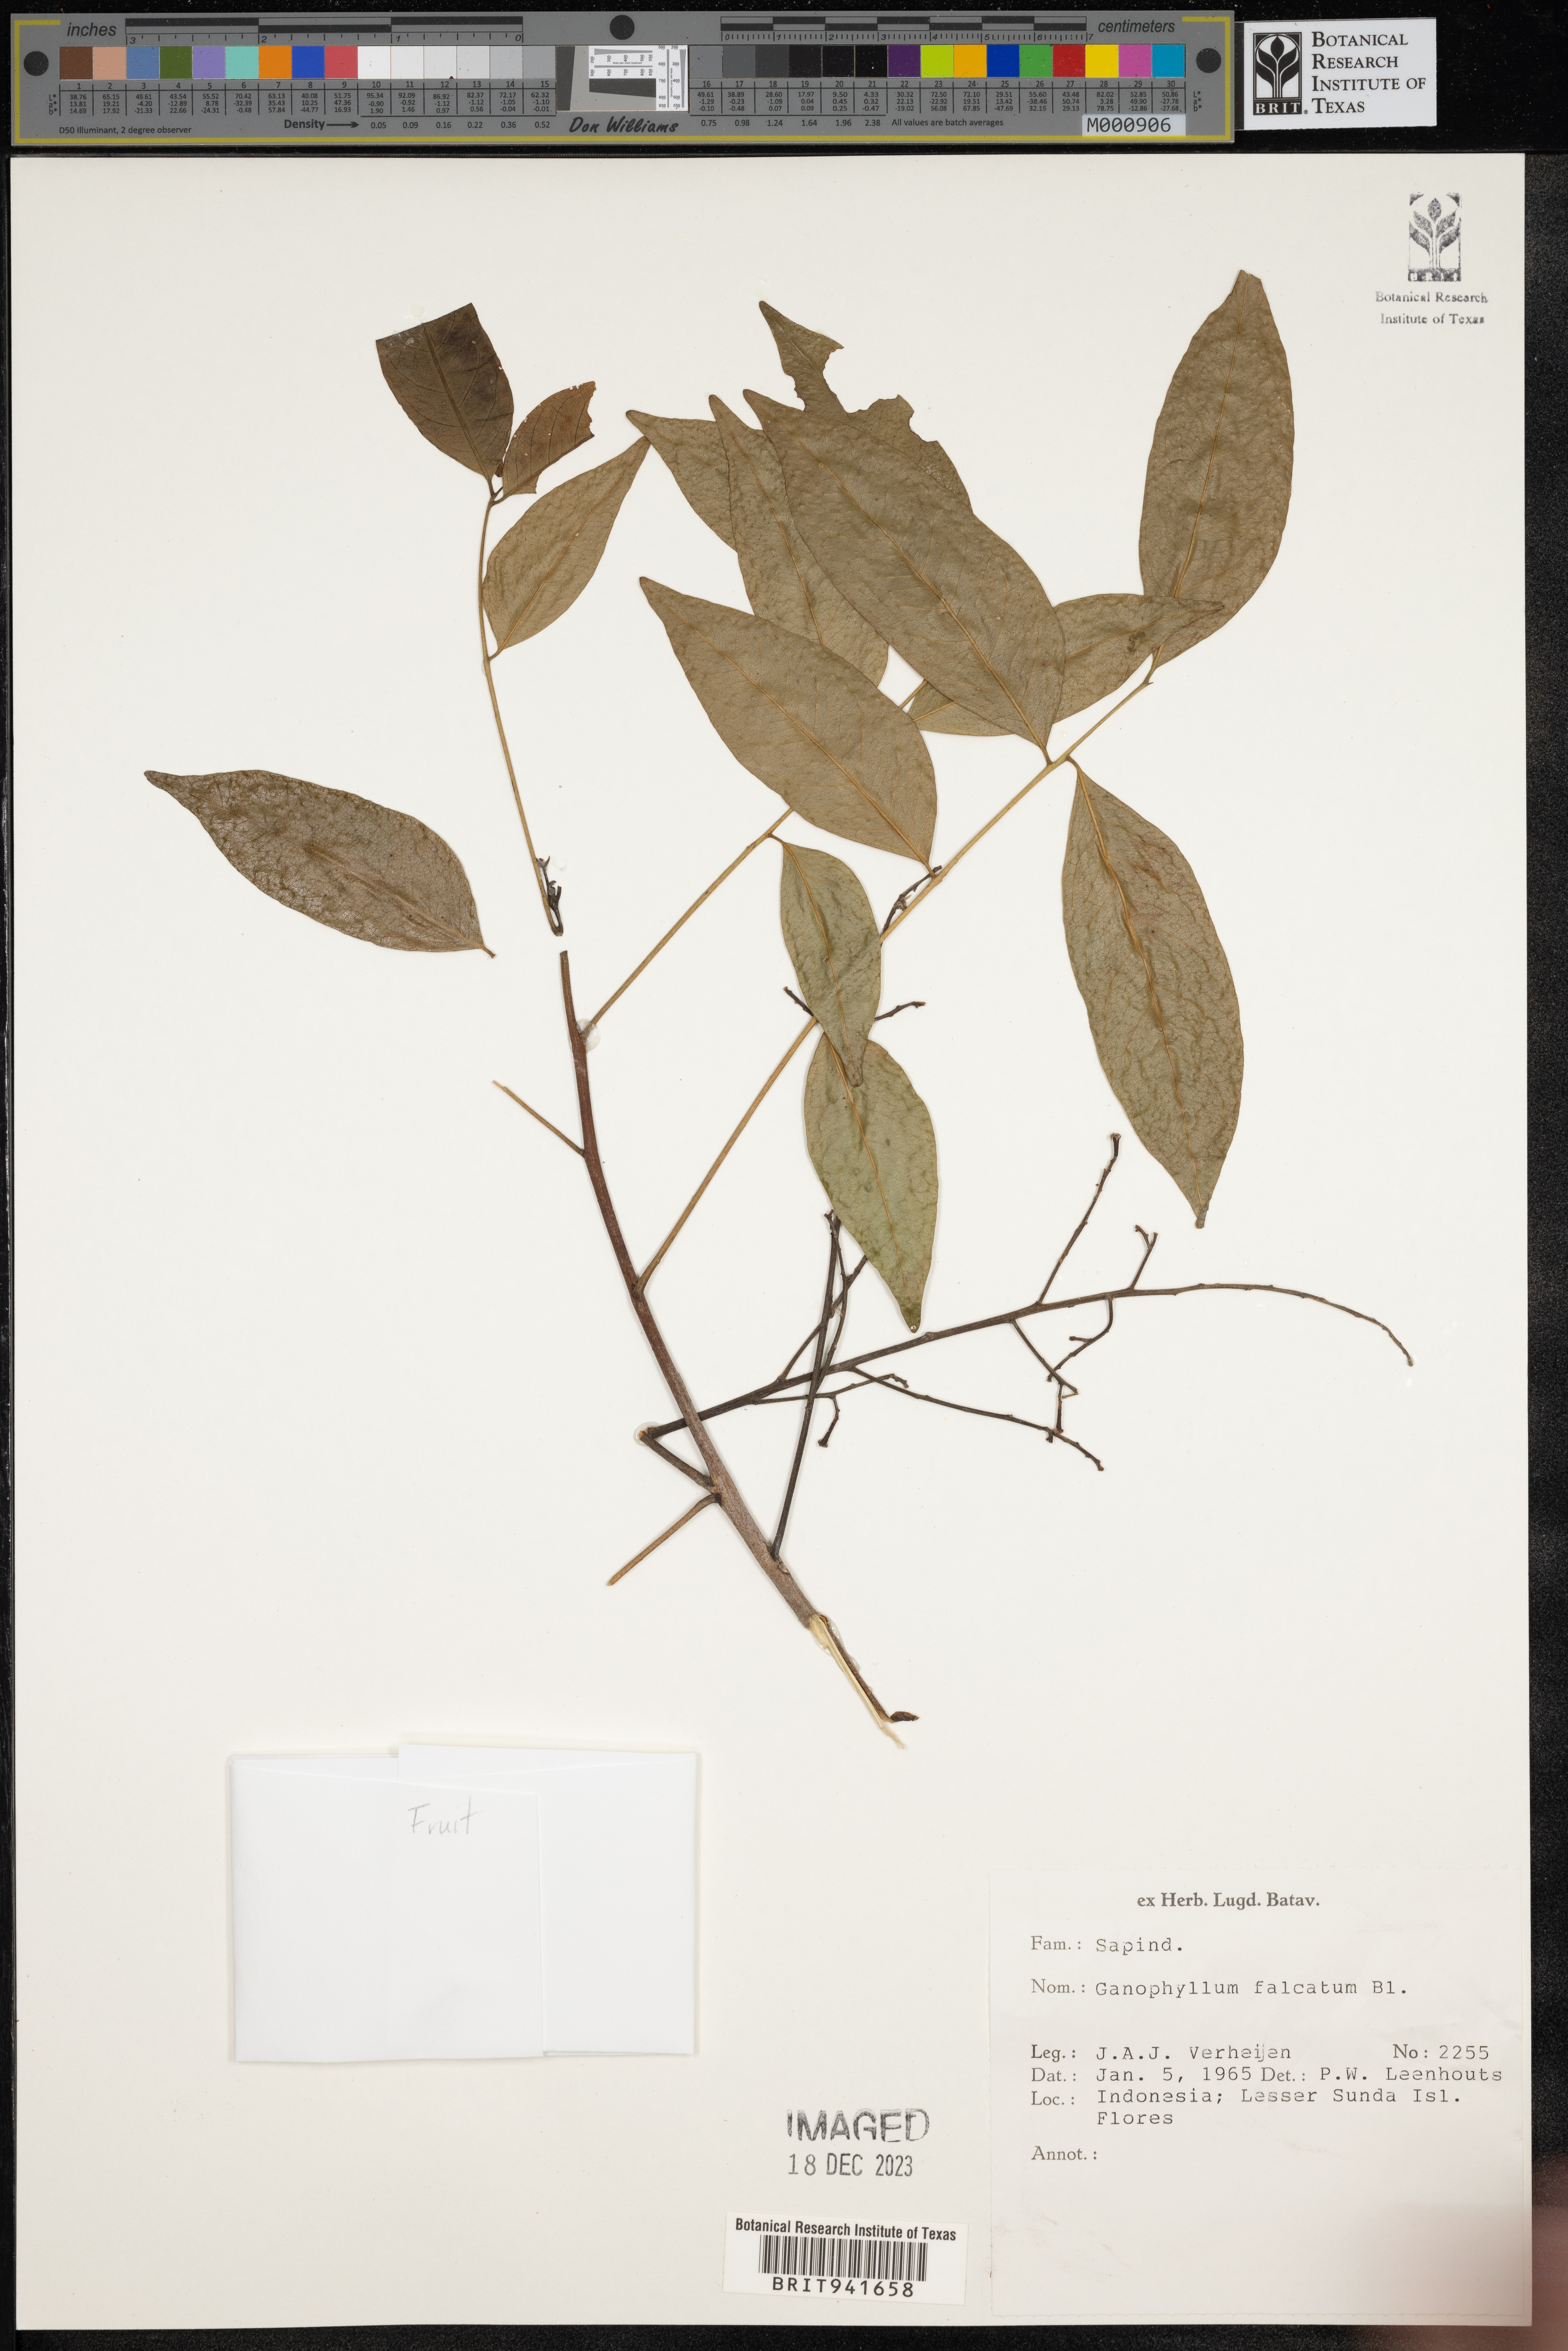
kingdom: Plantae
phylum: Tracheophyta
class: Magnoliopsida
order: Sapindales
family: Sapindaceae
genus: Ganophyllum
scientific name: Ganophyllum
